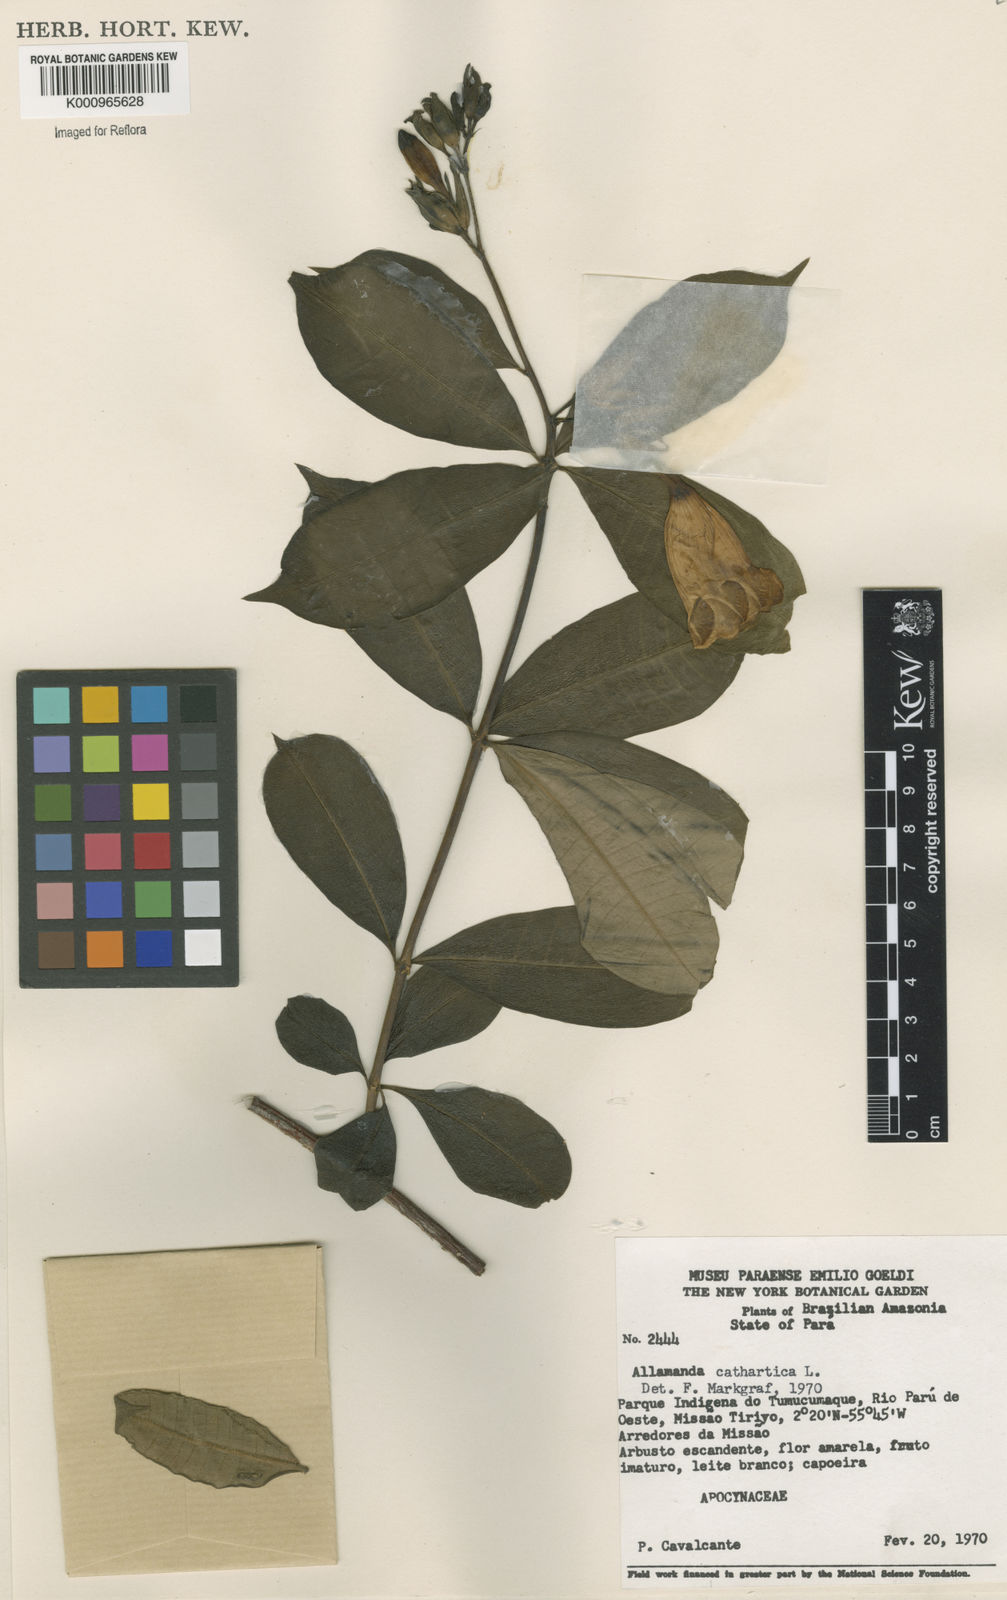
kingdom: Plantae
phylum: Tracheophyta
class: Magnoliopsida
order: Gentianales
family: Apocynaceae
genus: Allamanda
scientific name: Allamanda cathartica
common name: Golden trumpet
